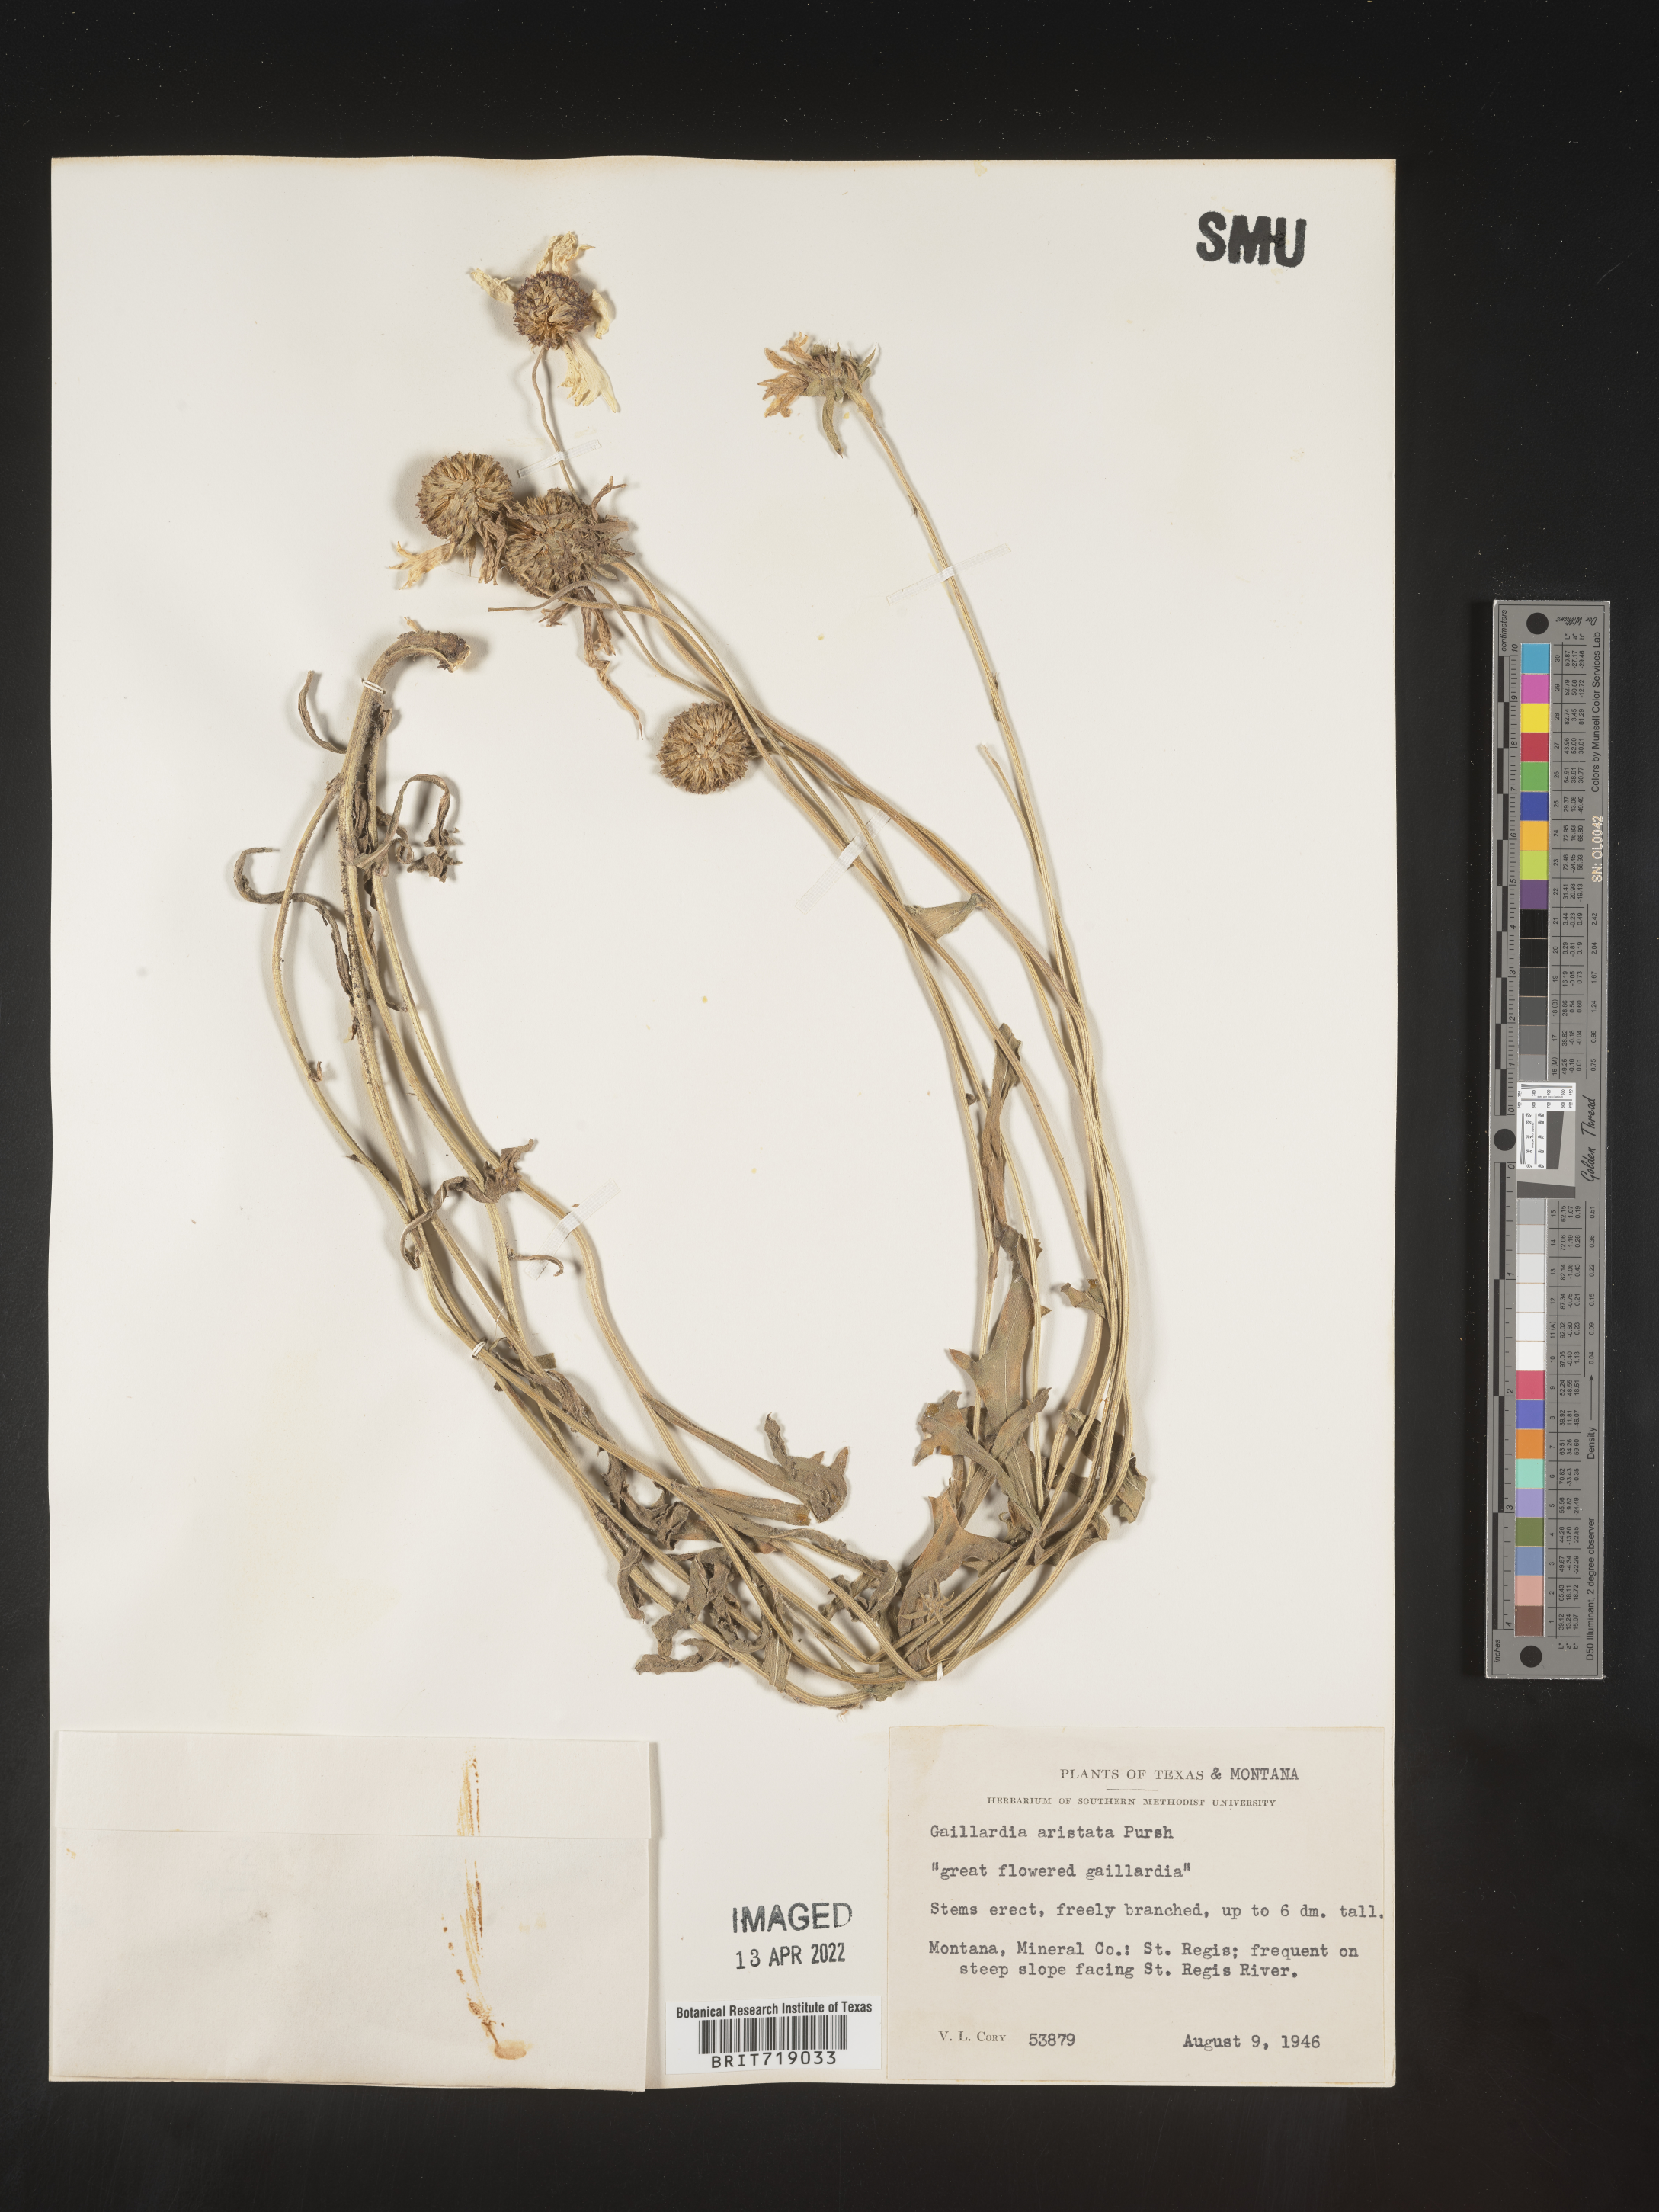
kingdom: Plantae
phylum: Tracheophyta
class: Magnoliopsida
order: Asterales
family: Asteraceae
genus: Gaillardia
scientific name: Gaillardia aristata
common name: Blanket-flower
